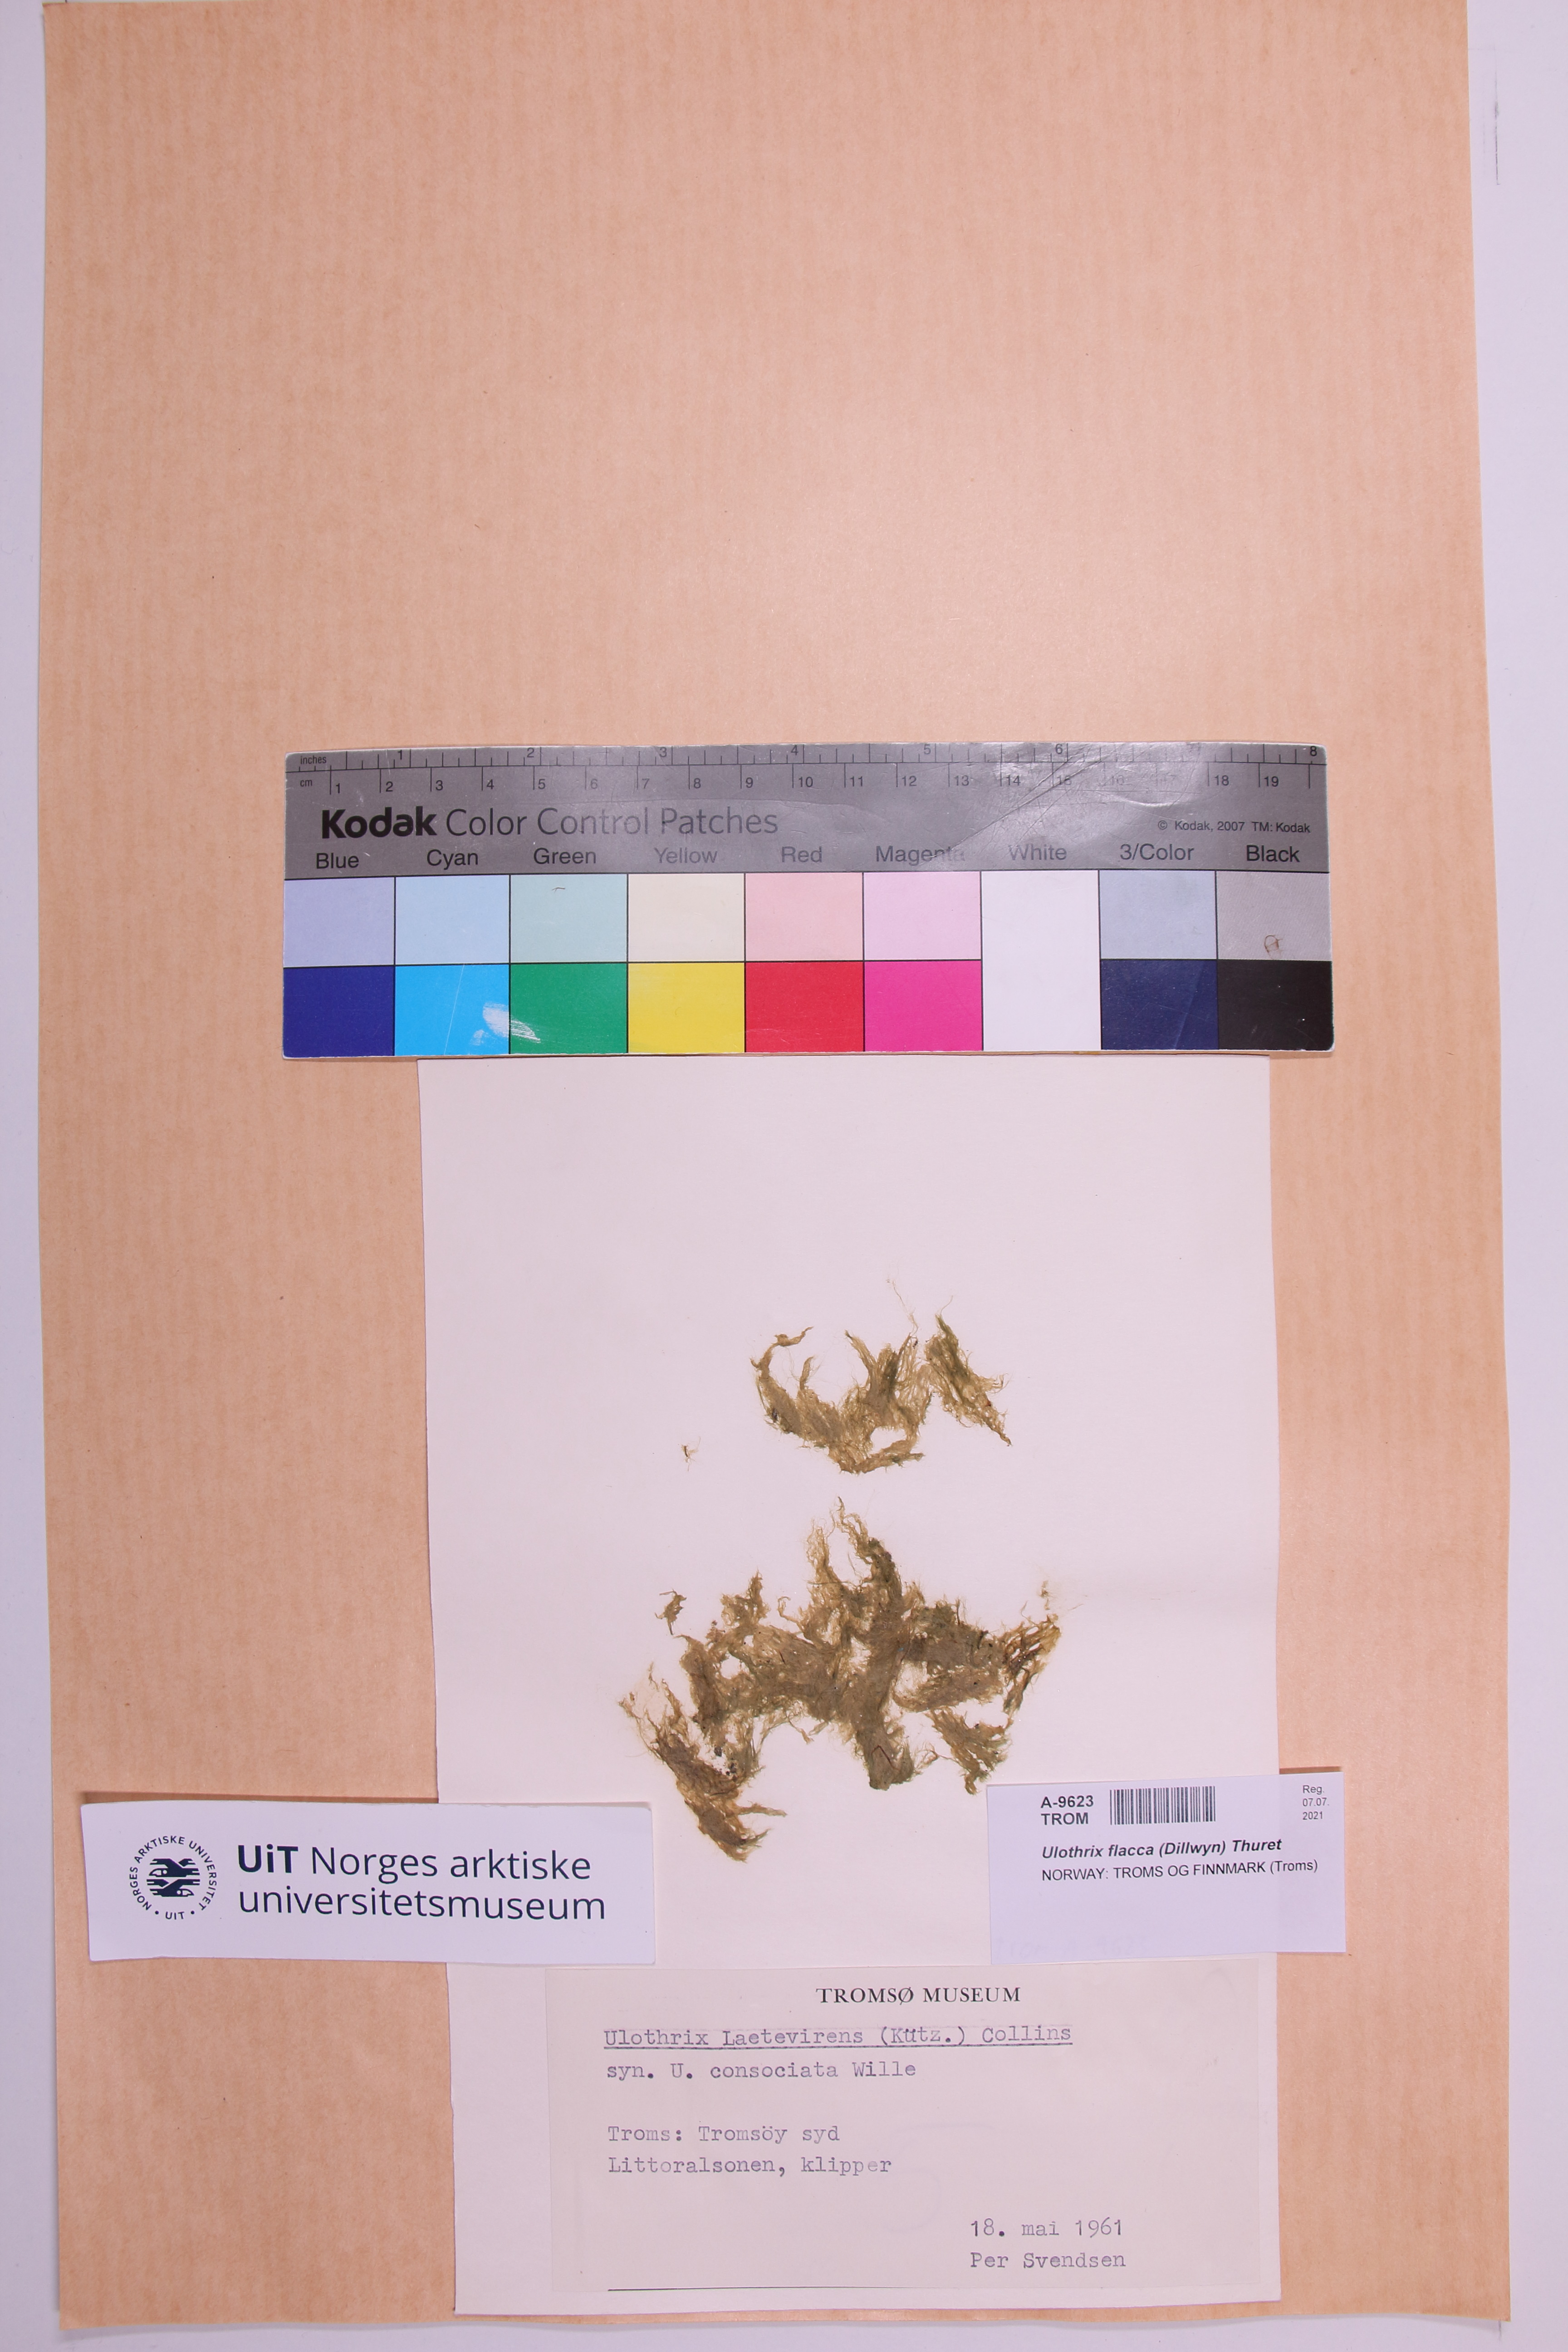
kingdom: Plantae
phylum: Chlorophyta
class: Ulvophyceae
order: Ulotrichales
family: Ulotrichaceae
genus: Ulothrix
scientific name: Ulothrix flacca
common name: Woolly hair
